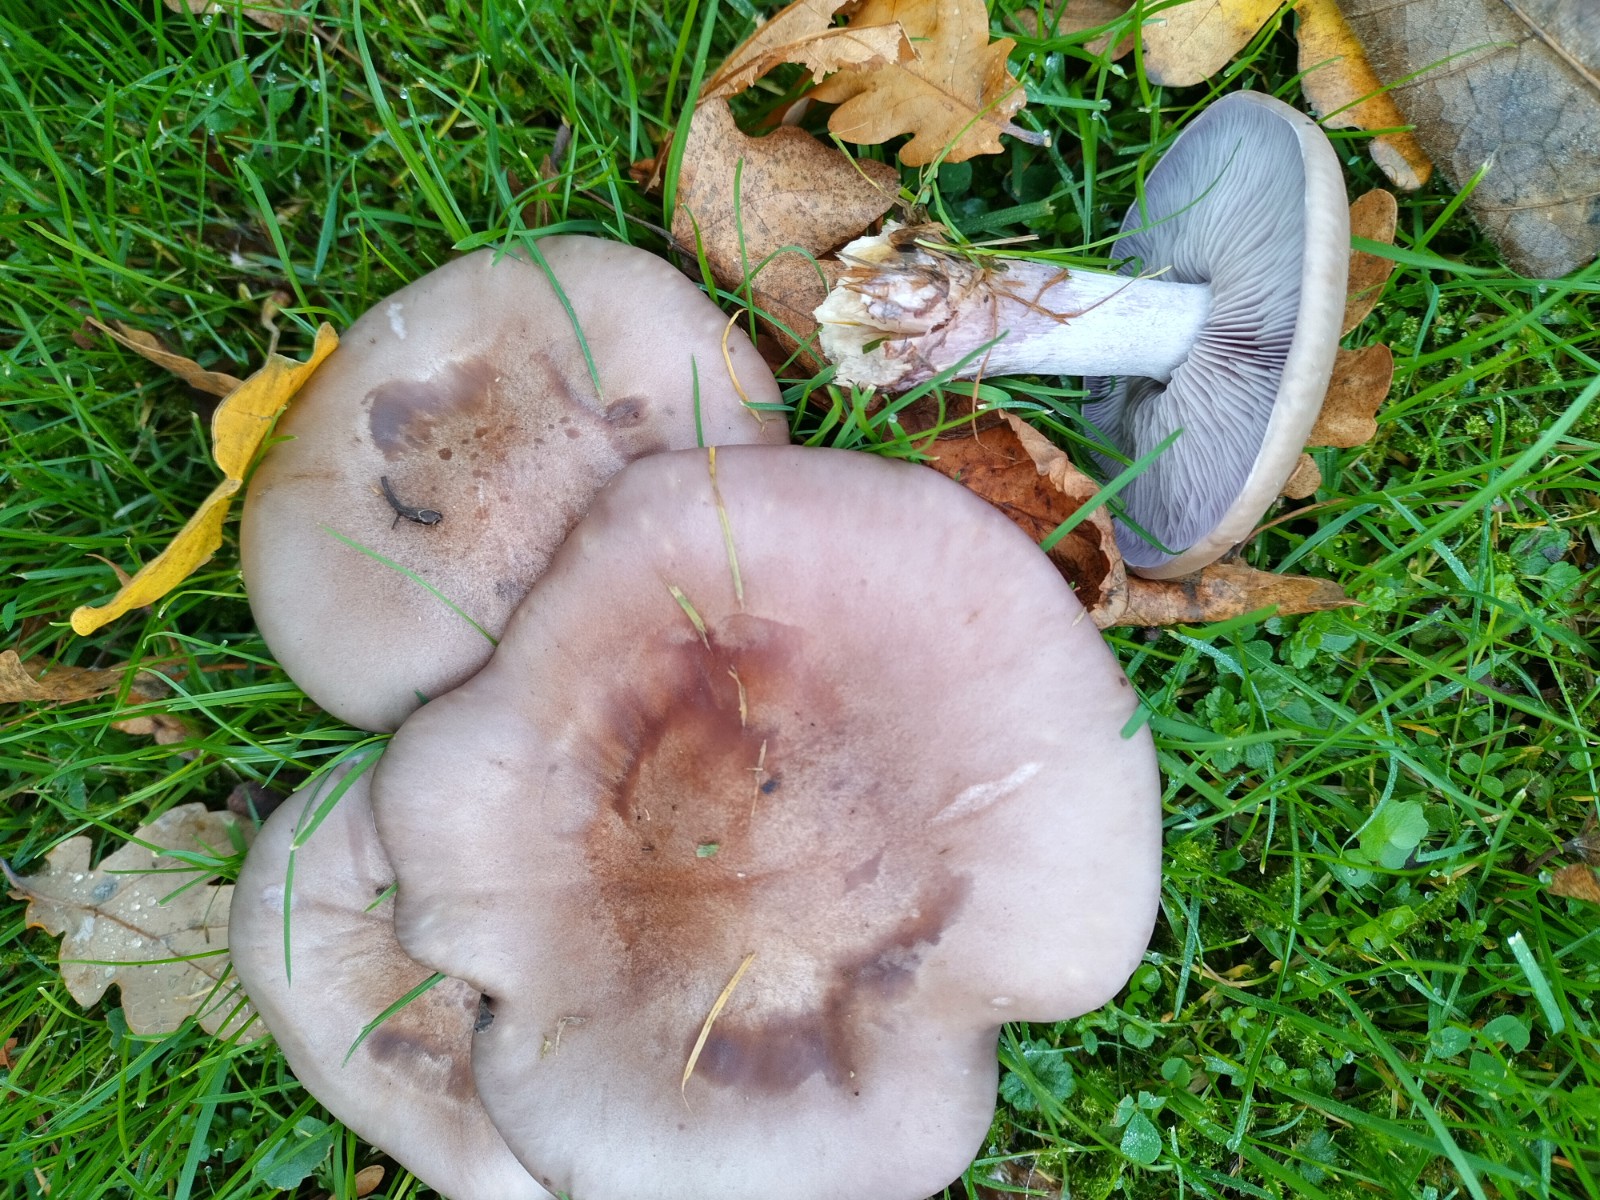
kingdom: Fungi
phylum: Basidiomycota
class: Agaricomycetes
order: Agaricales
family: Tricholomataceae
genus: Lepista
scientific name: Lepista nuda
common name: violet hekseringshat
